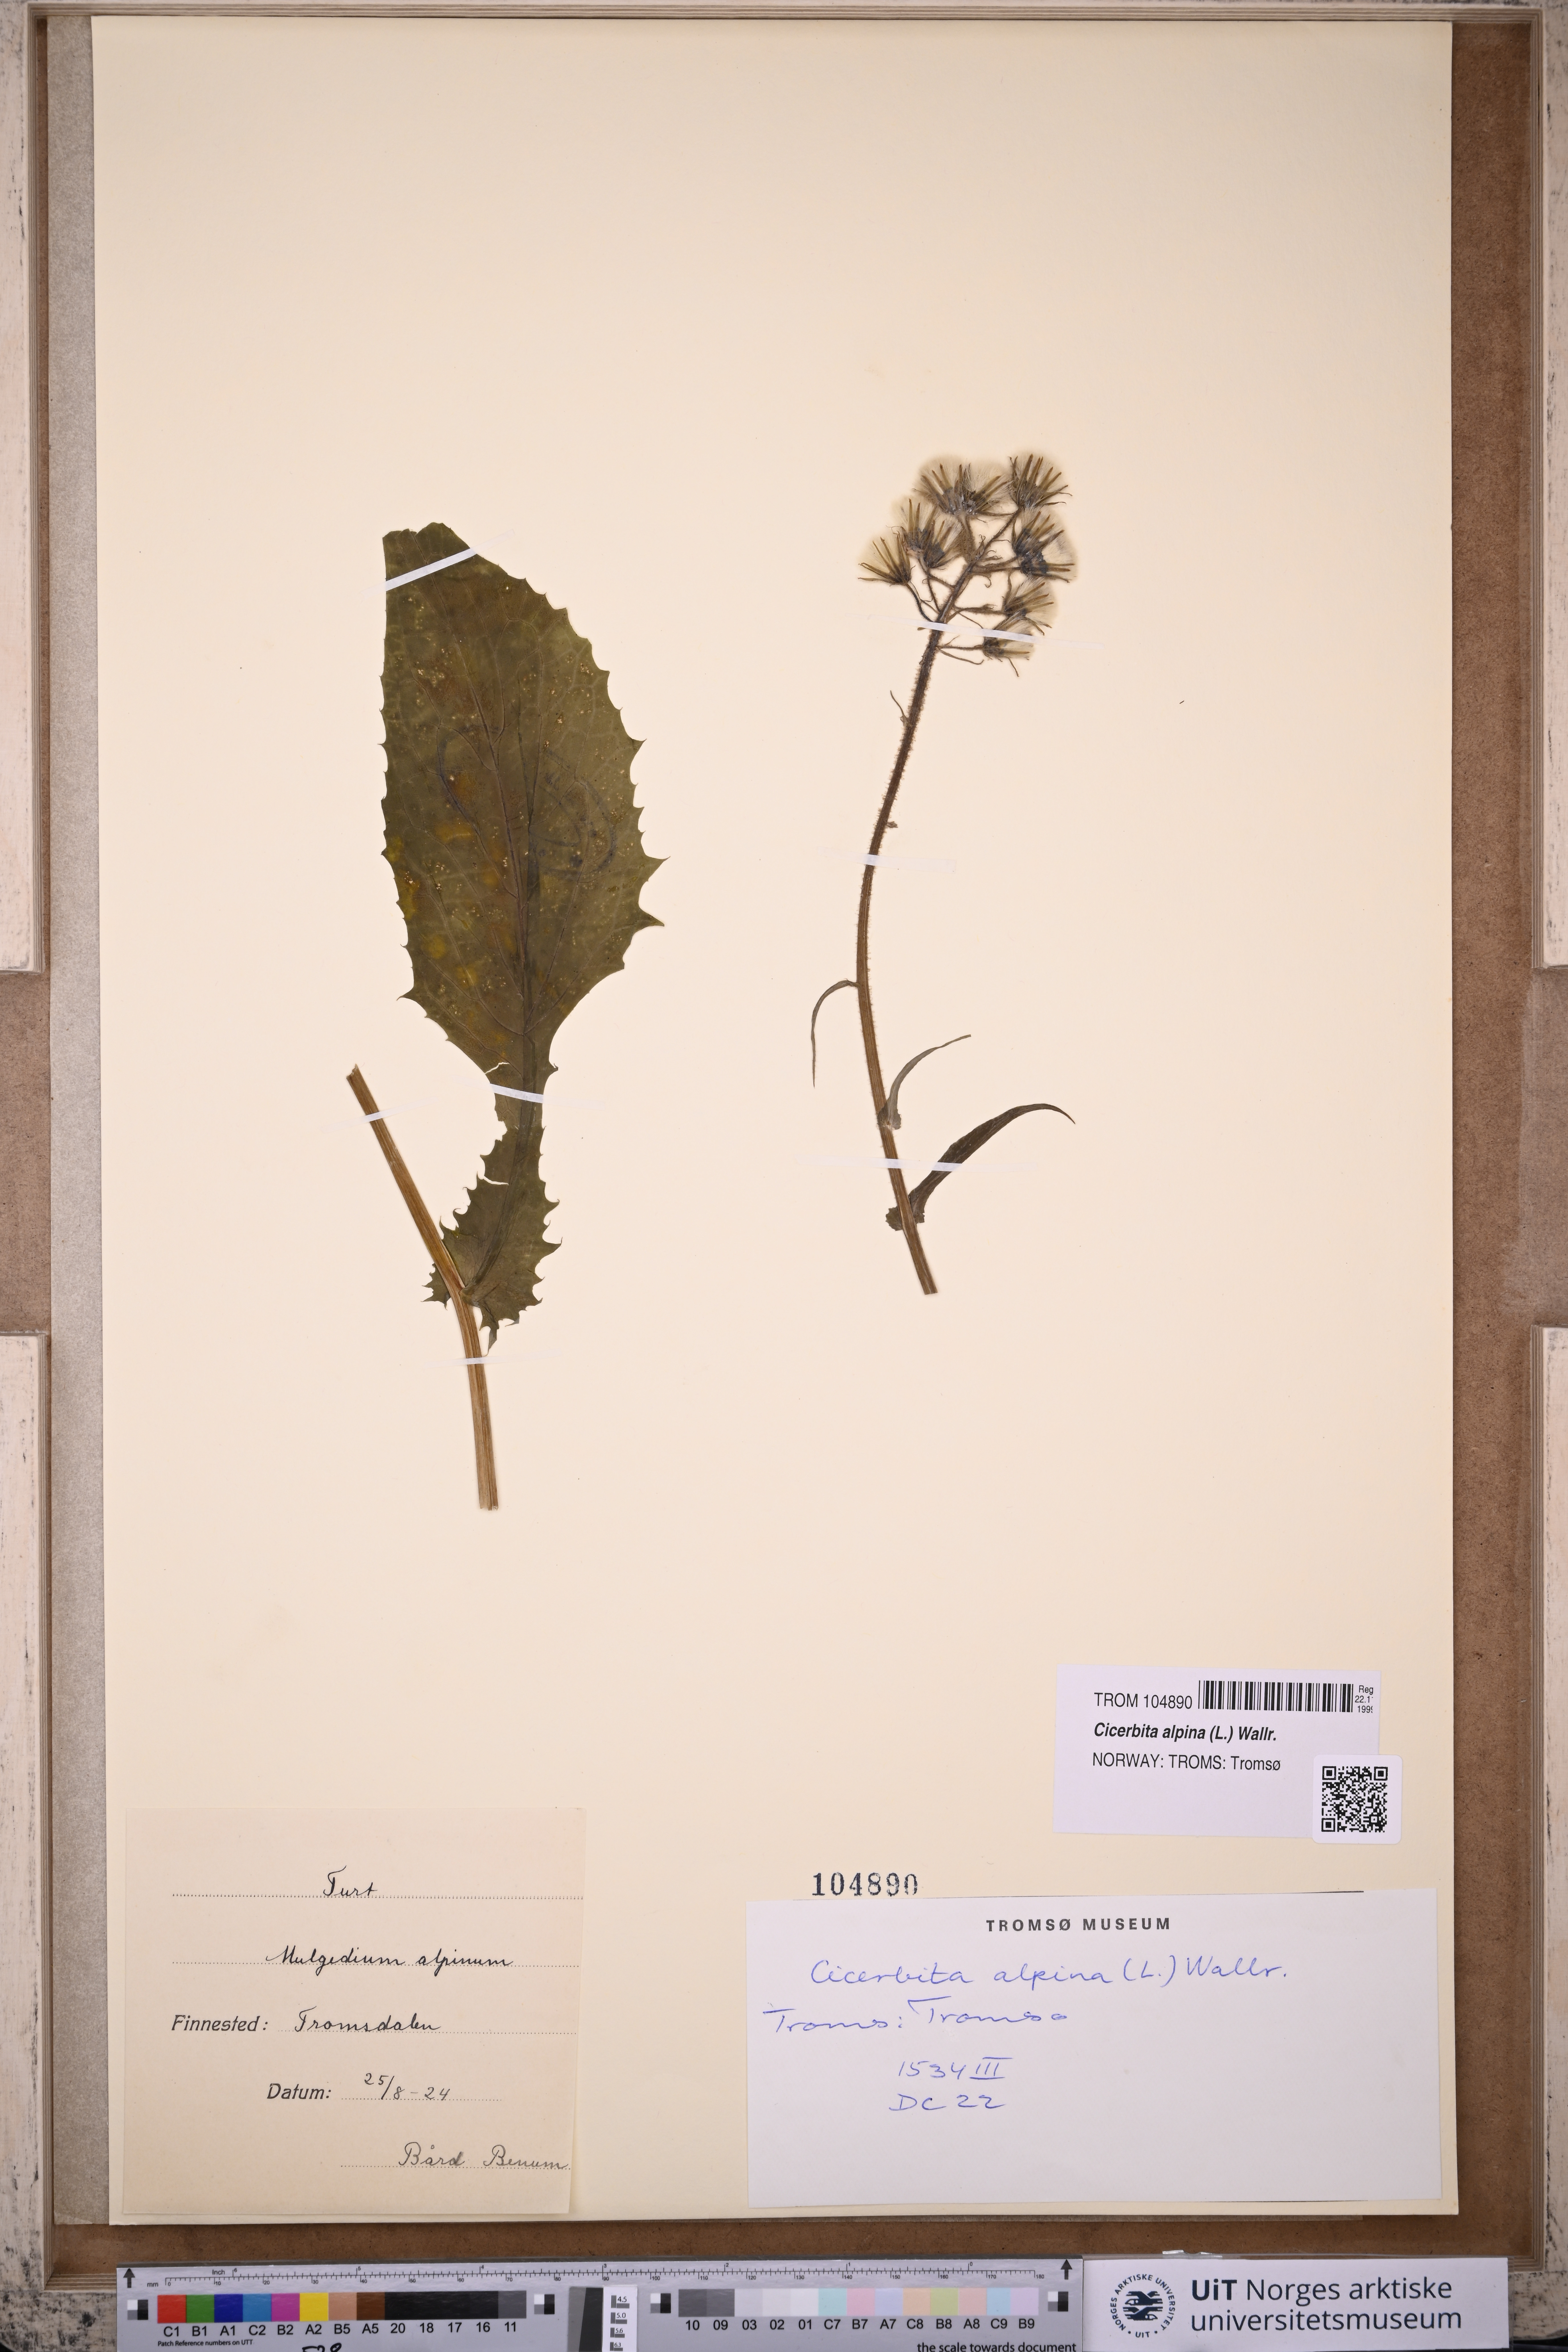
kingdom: Plantae
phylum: Tracheophyta
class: Magnoliopsida
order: Asterales
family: Asteraceae
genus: Cicerbita
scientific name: Cicerbita alpina
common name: Alpine blue-sow-thistle
